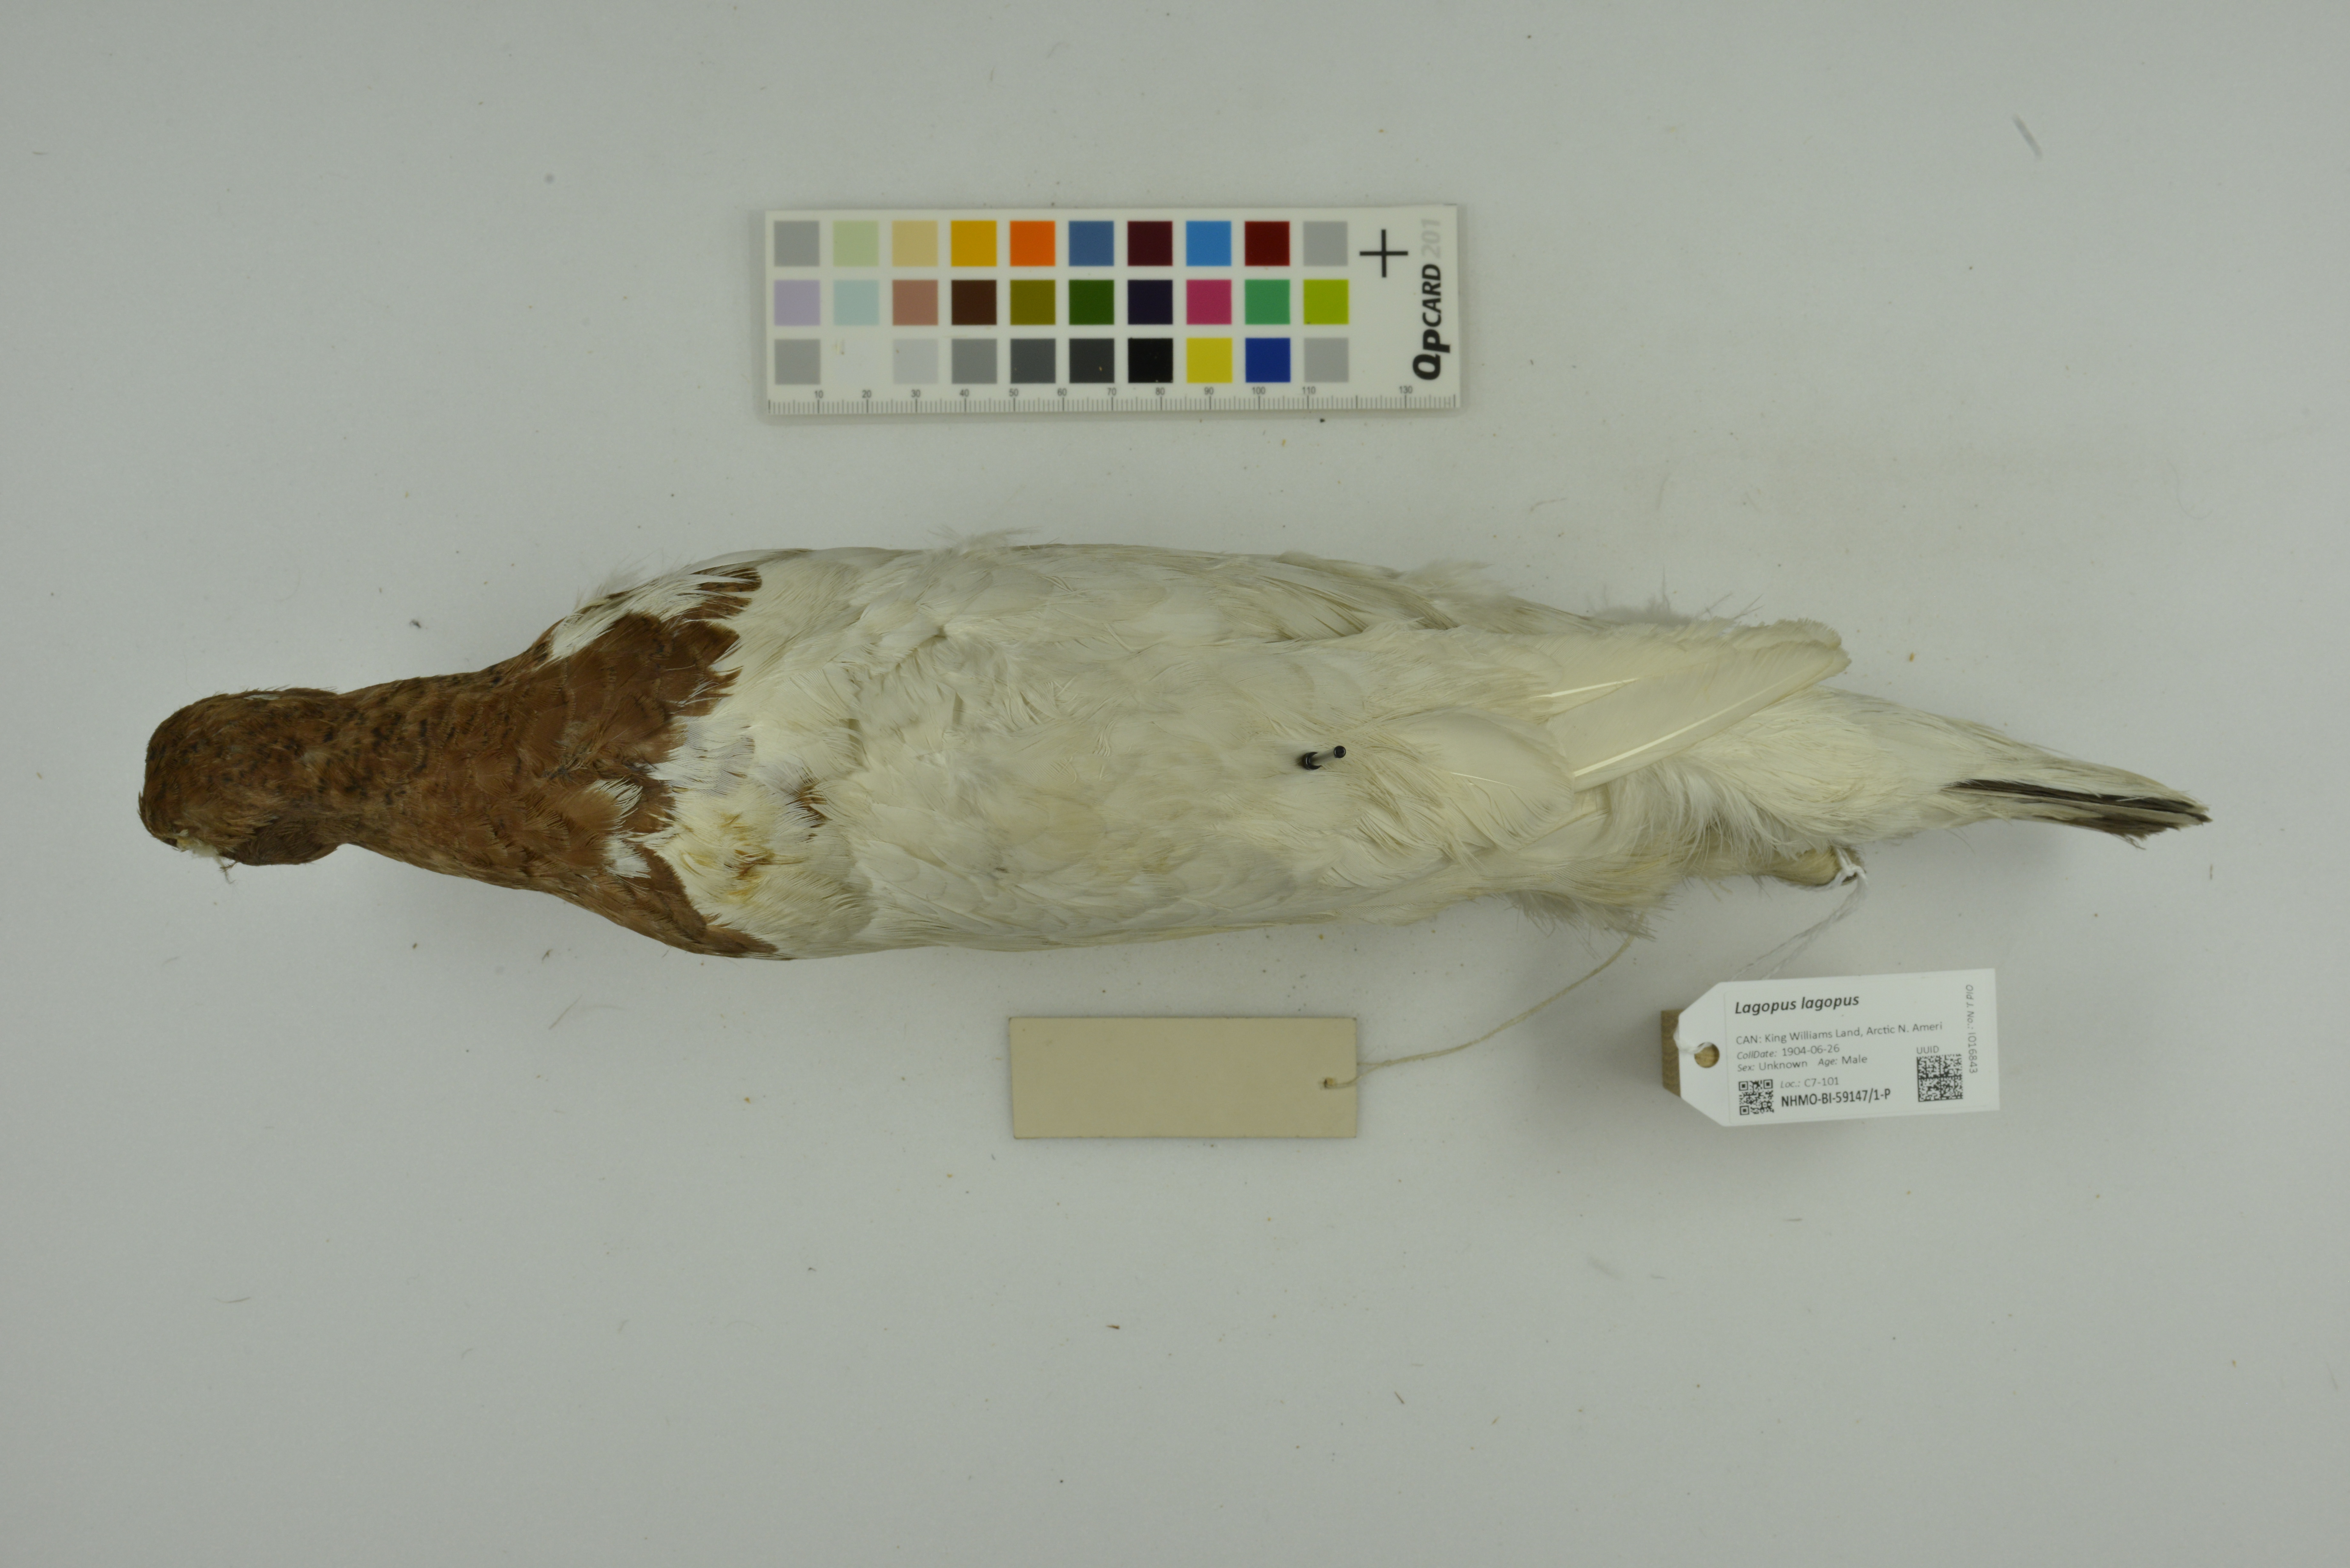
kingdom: Animalia
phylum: Chordata
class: Aves
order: Galliformes
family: Phasianidae
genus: Lagopus
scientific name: Lagopus lagopus
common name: Willow ptarmigan
